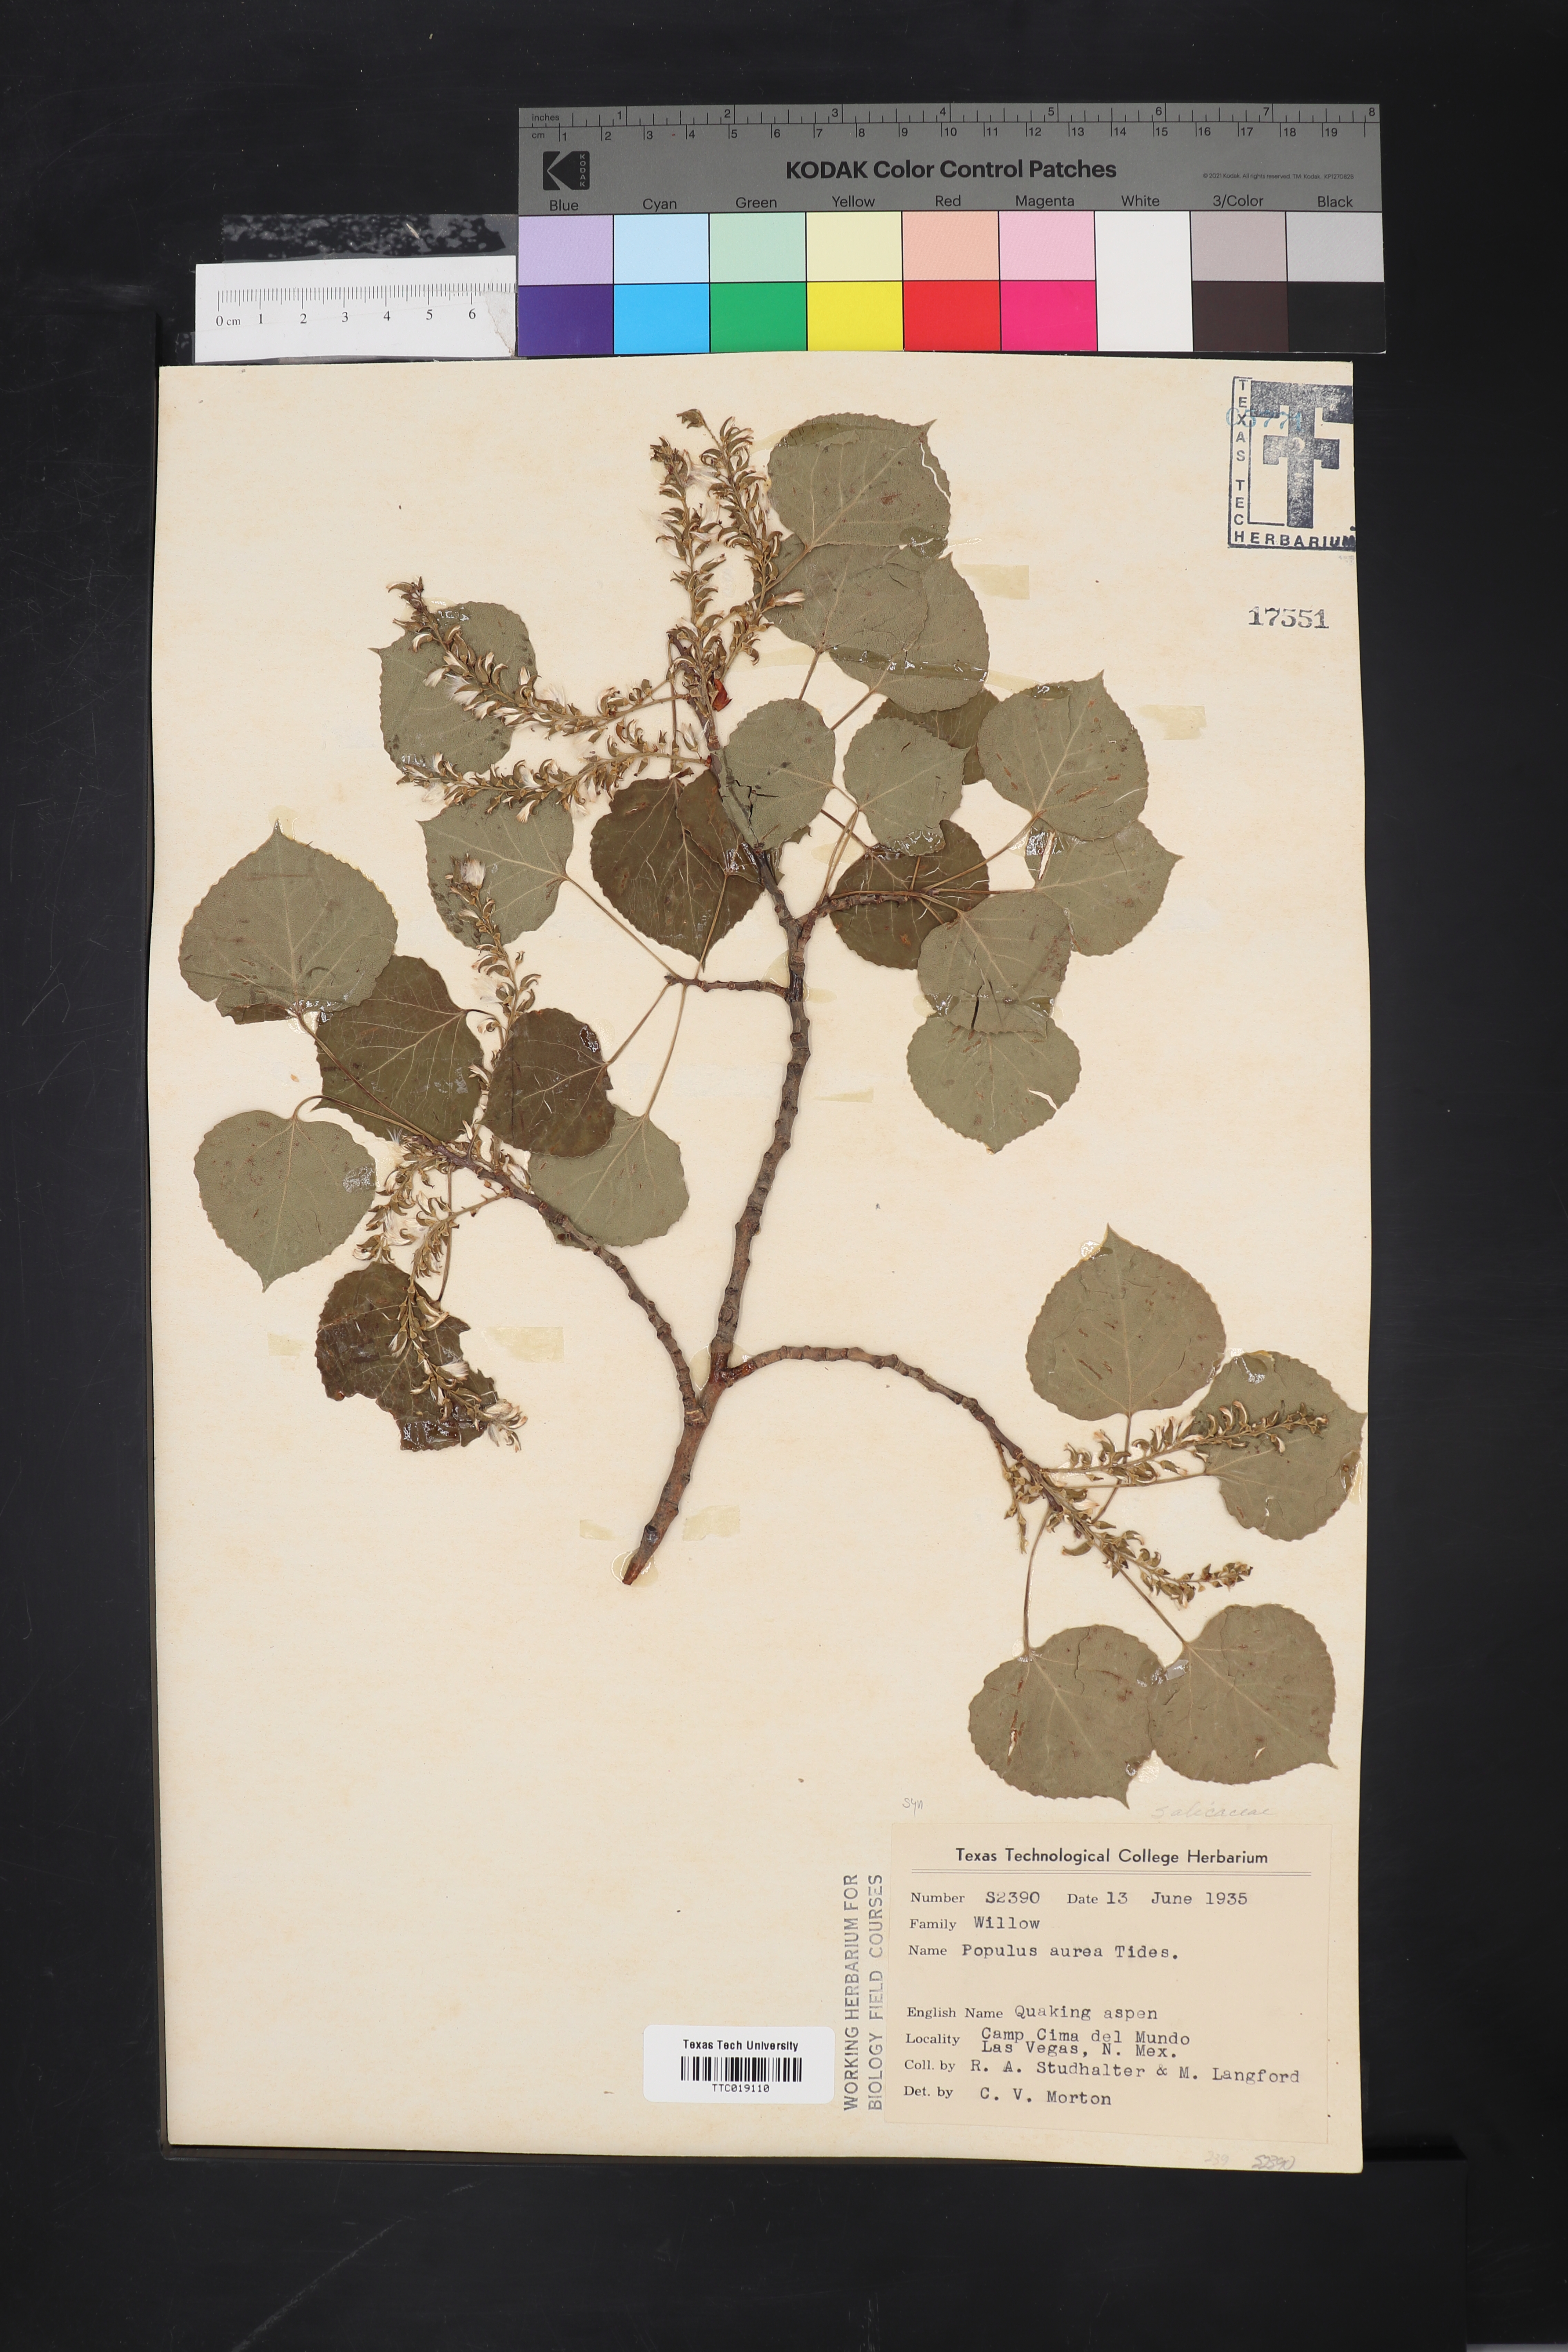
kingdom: Plantae
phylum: Tracheophyta
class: Magnoliopsida
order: Malpighiales
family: Salicaceae
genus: Populus
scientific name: Populus tremuloides
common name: Quaking aspen
